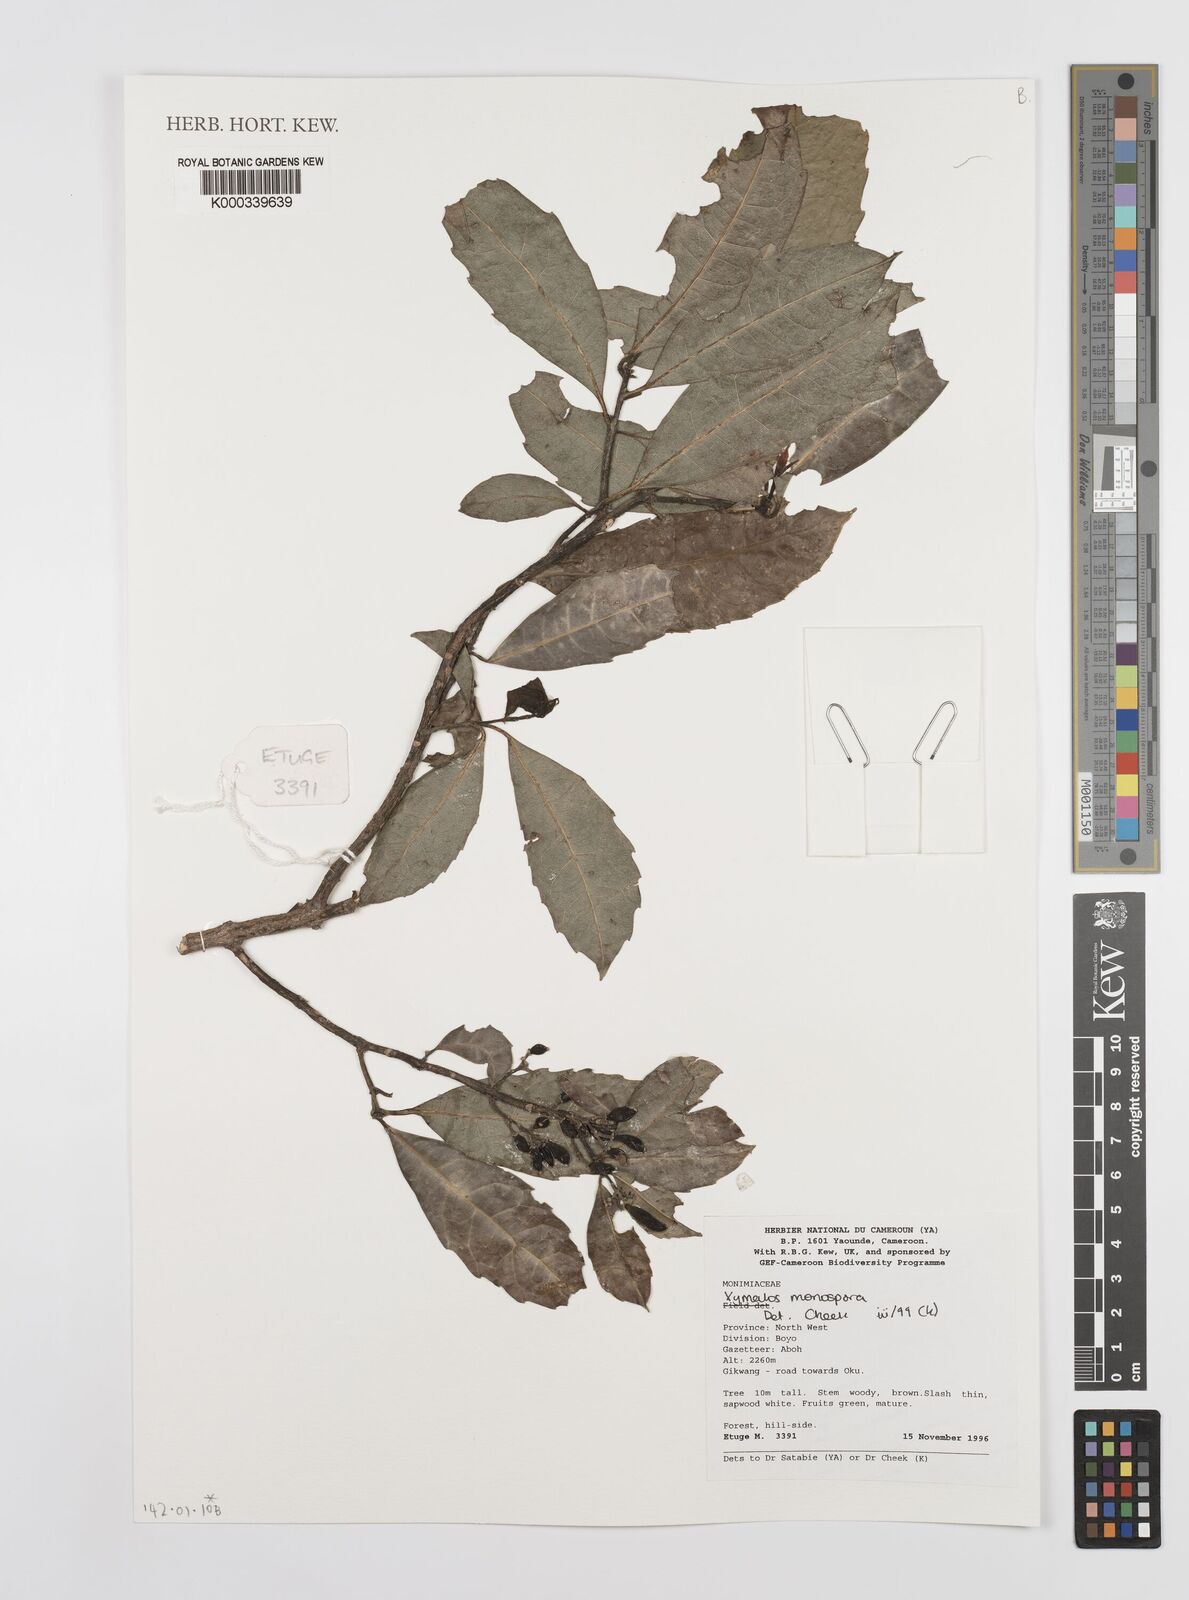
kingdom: Plantae
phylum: Tracheophyta
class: Magnoliopsida
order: Laurales
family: Monimiaceae
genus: Xymalos
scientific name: Xymalos
